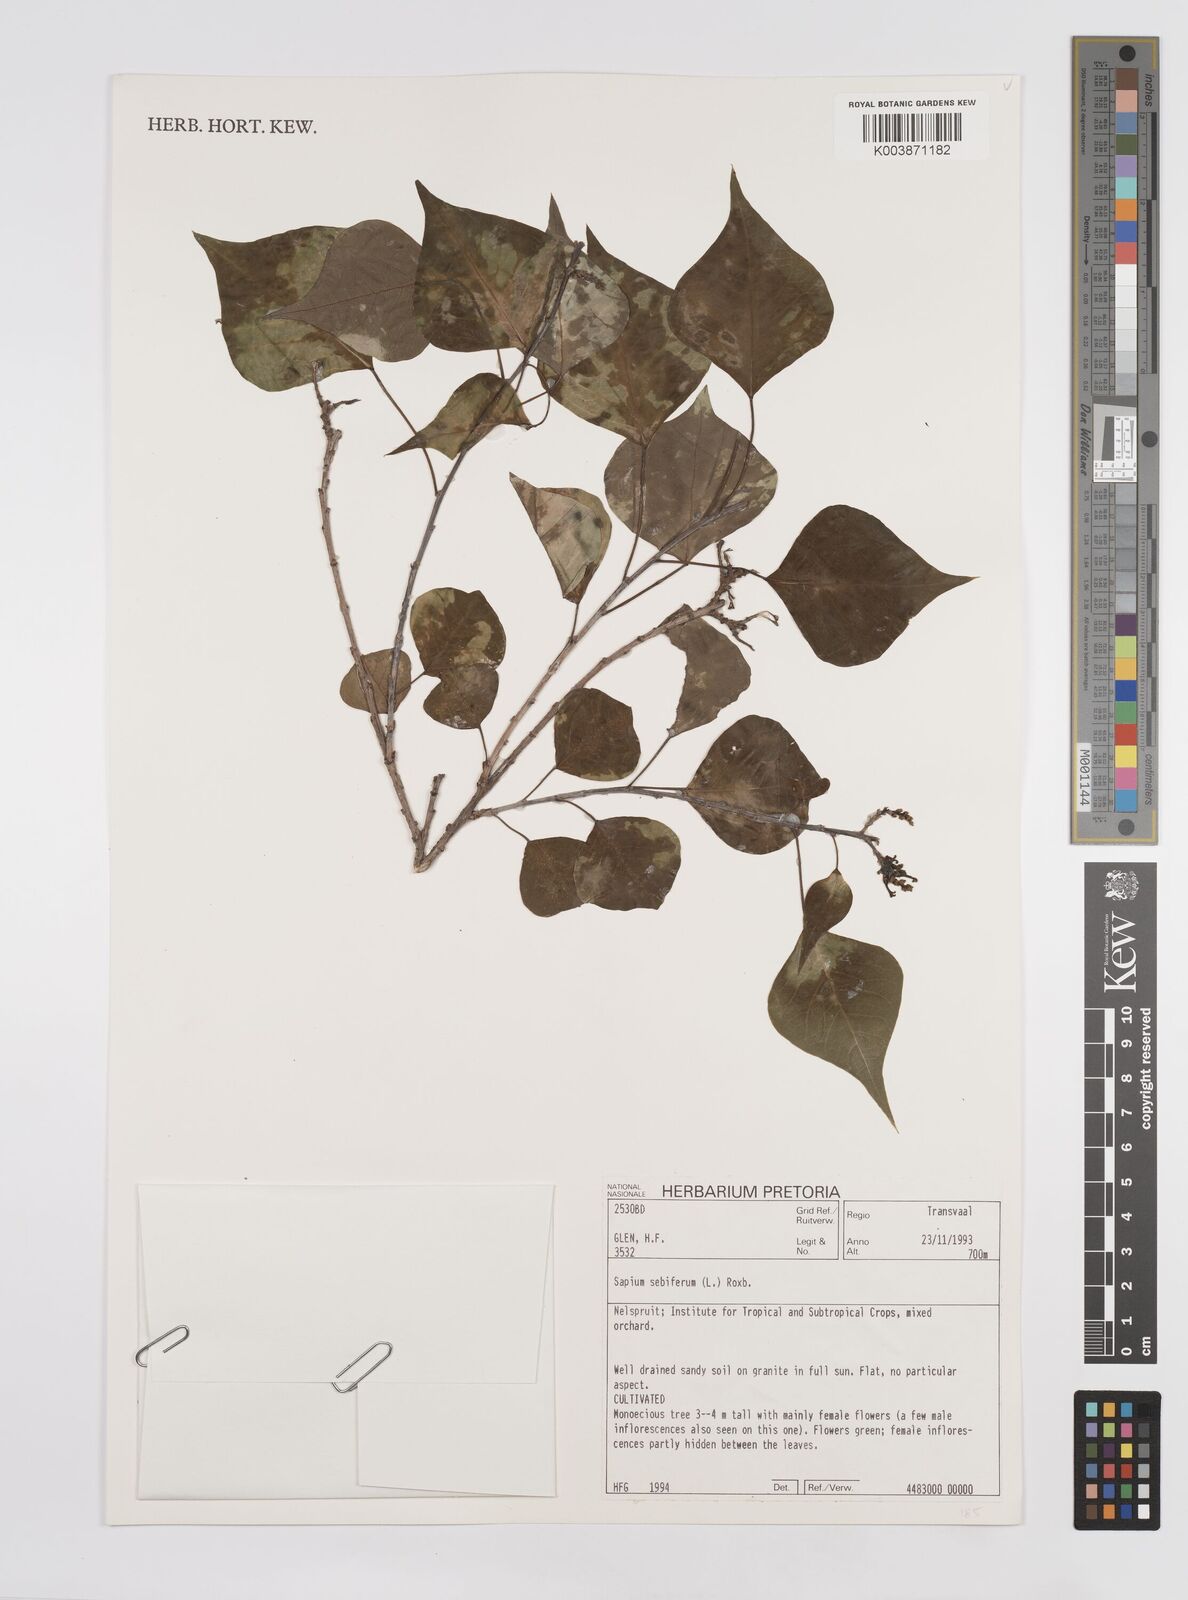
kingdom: Plantae
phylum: Tracheophyta
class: Magnoliopsida
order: Malpighiales
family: Euphorbiaceae
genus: Triadica
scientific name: Triadica sebifera
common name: Chinese tallow
